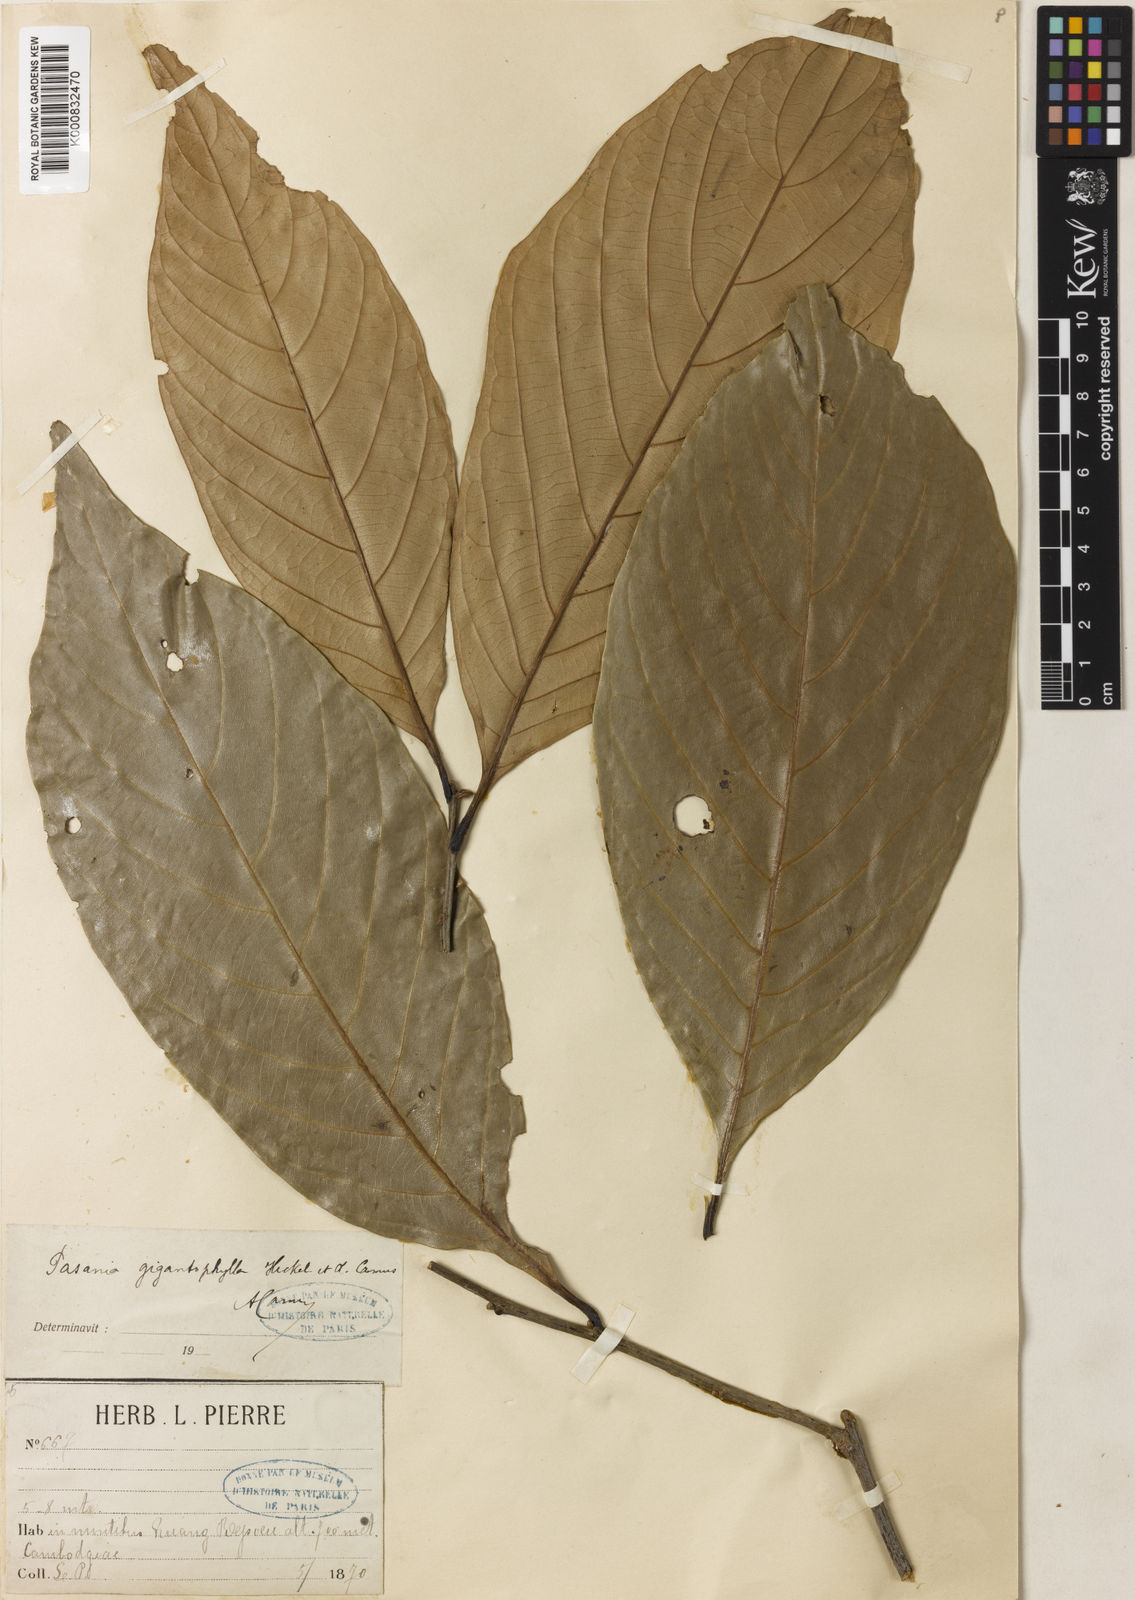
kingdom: Plantae
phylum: Tracheophyta
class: Magnoliopsida
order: Fagales
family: Fagaceae
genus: Lithocarpus
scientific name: Lithocarpus gigantophyllus
